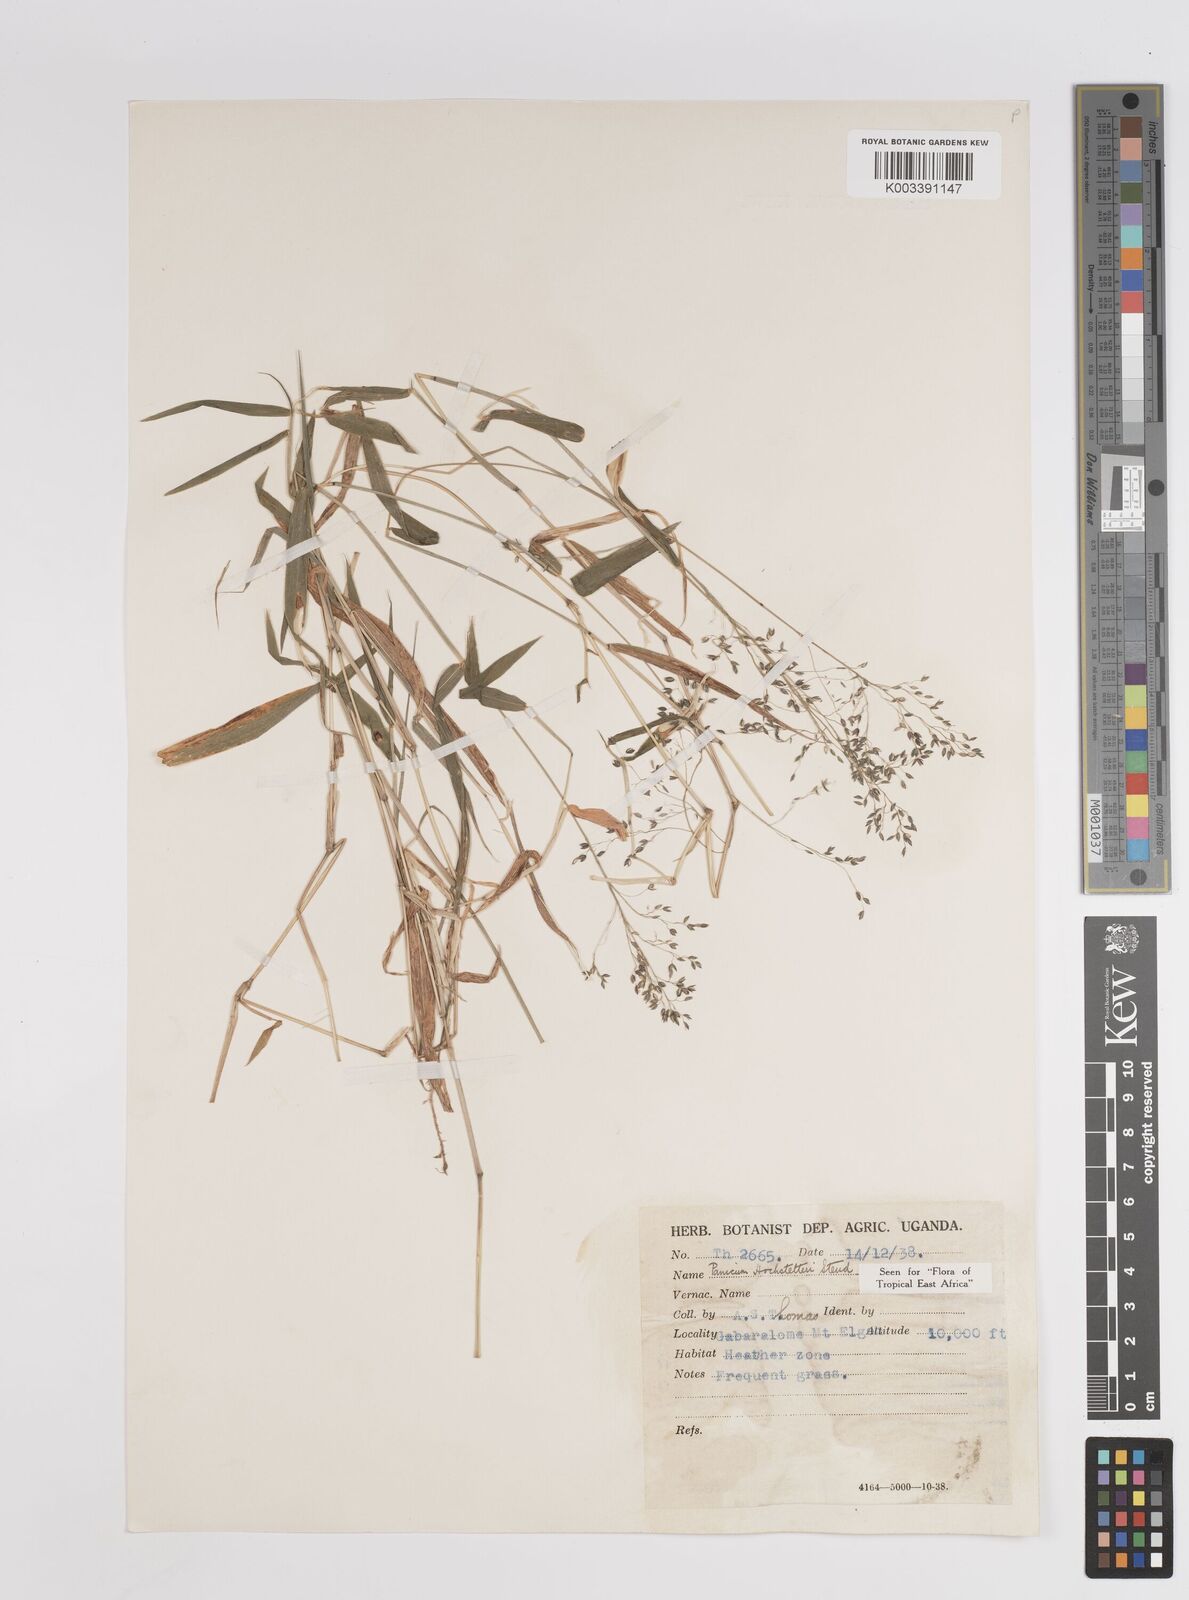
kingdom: Plantae
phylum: Tracheophyta
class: Liliopsida
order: Poales
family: Poaceae
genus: Panicum
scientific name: Panicum hochstetteri
